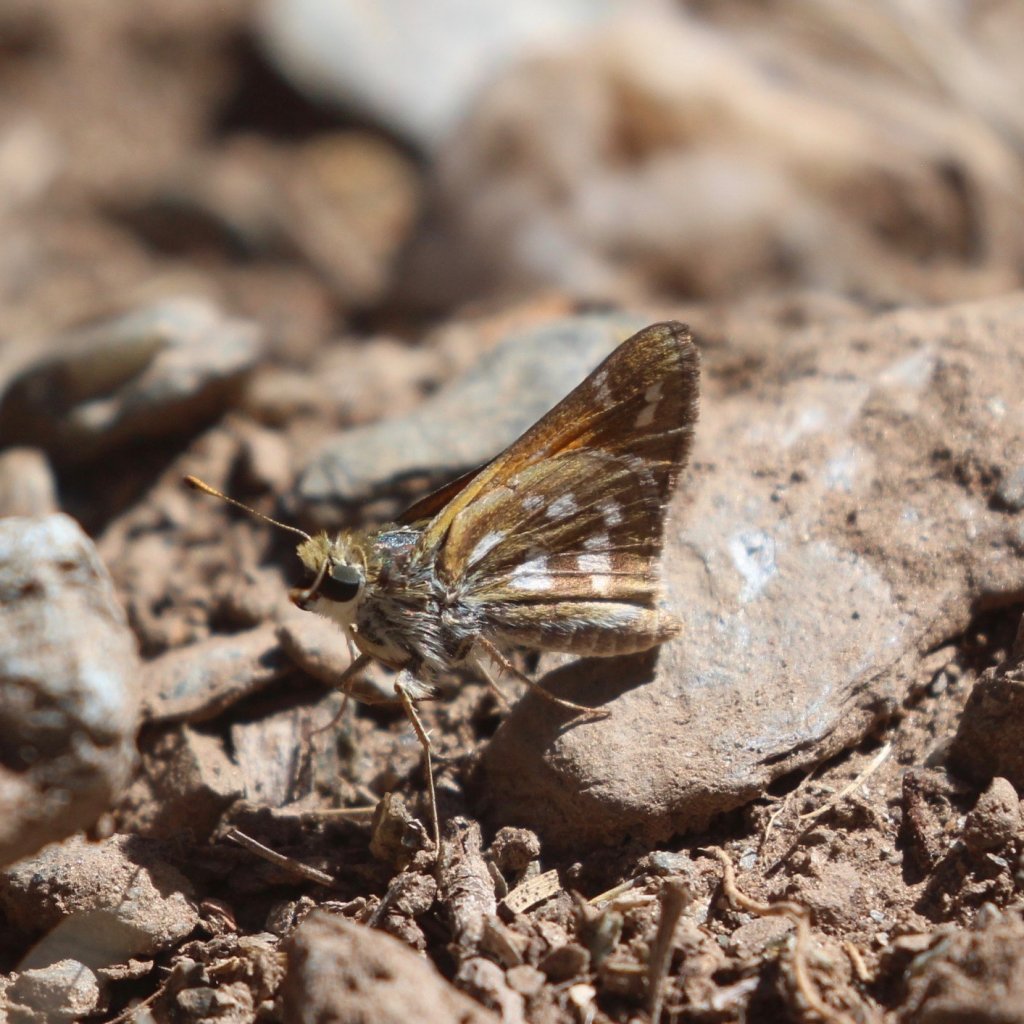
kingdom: Animalia
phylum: Arthropoda
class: Insecta
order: Lepidoptera
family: Hesperiidae
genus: Hesperia
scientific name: Hesperia pahaska
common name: Pahaska Skipper
